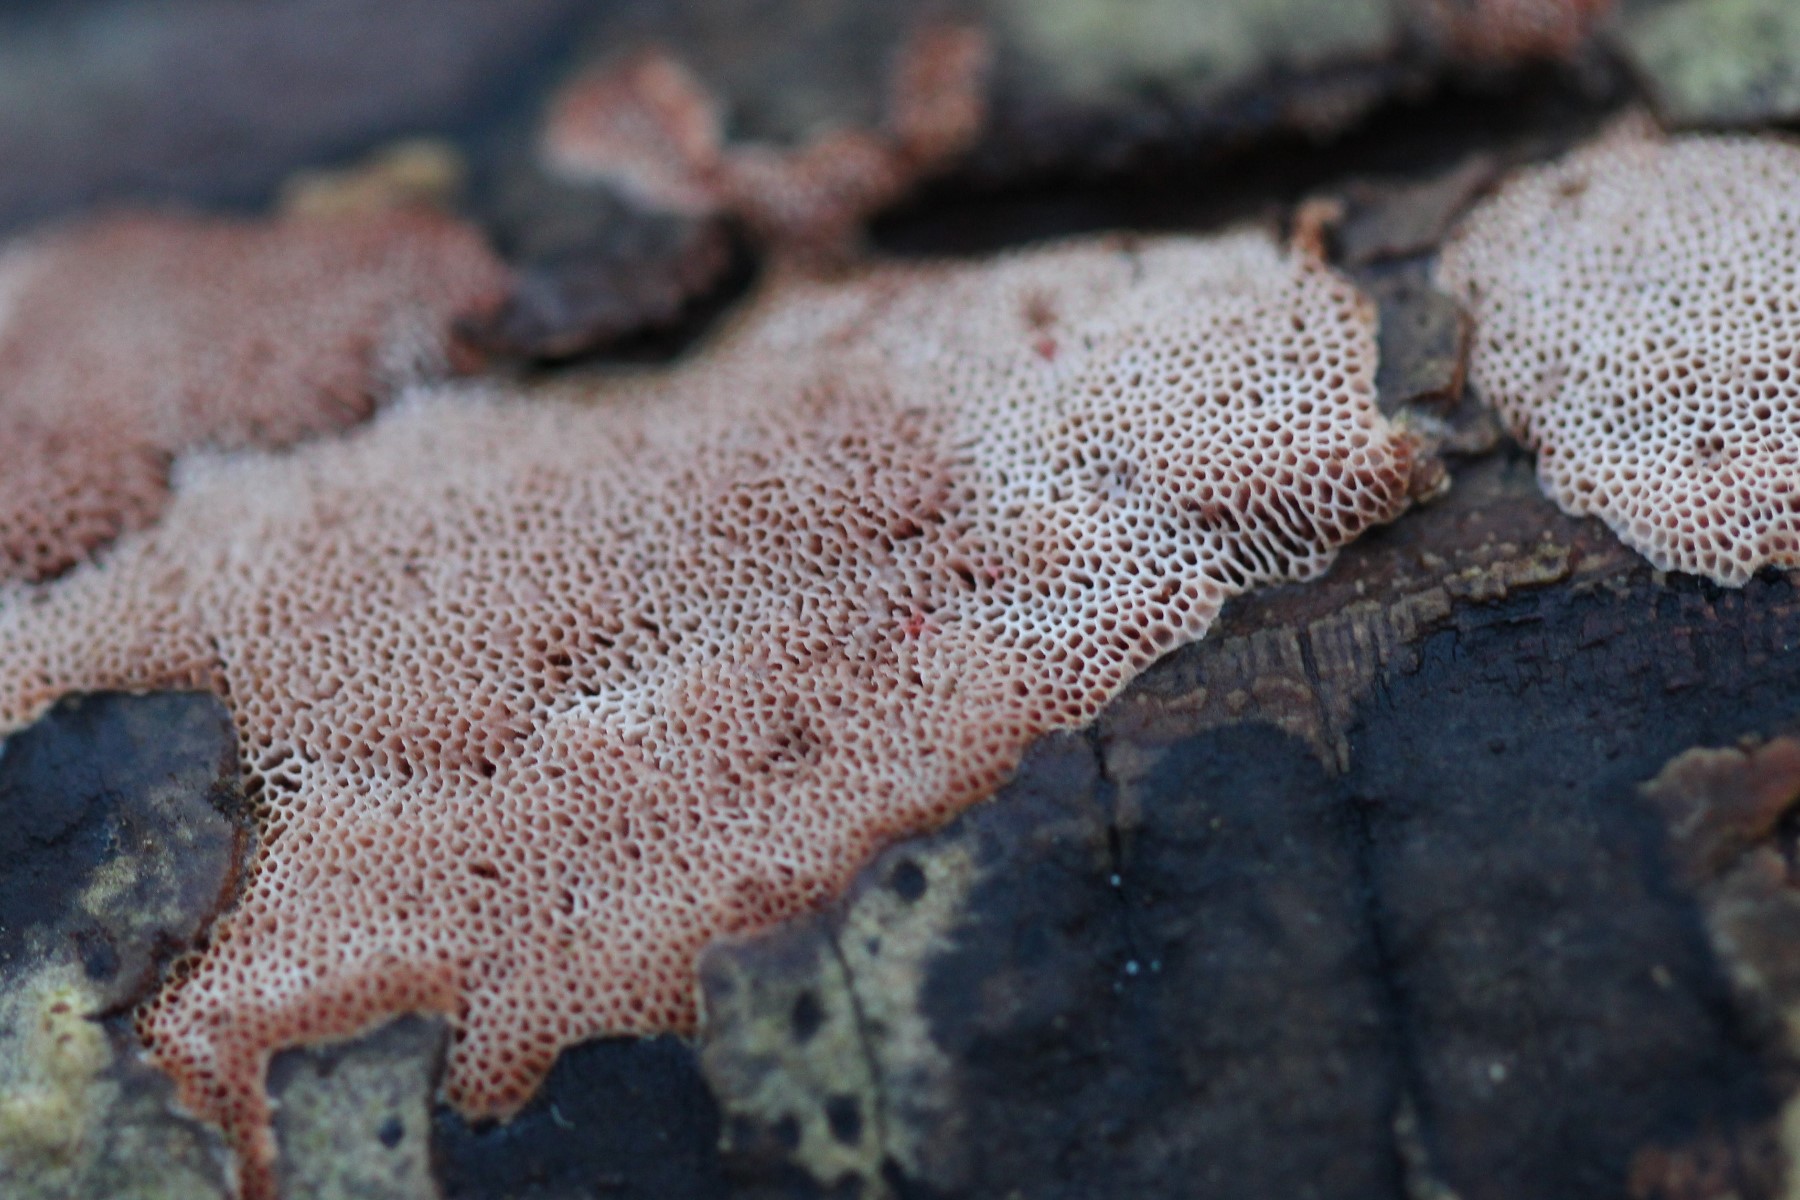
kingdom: Fungi
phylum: Basidiomycota
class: Agaricomycetes
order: Polyporales
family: Phanerochaetaceae
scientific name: Phanerochaetaceae
